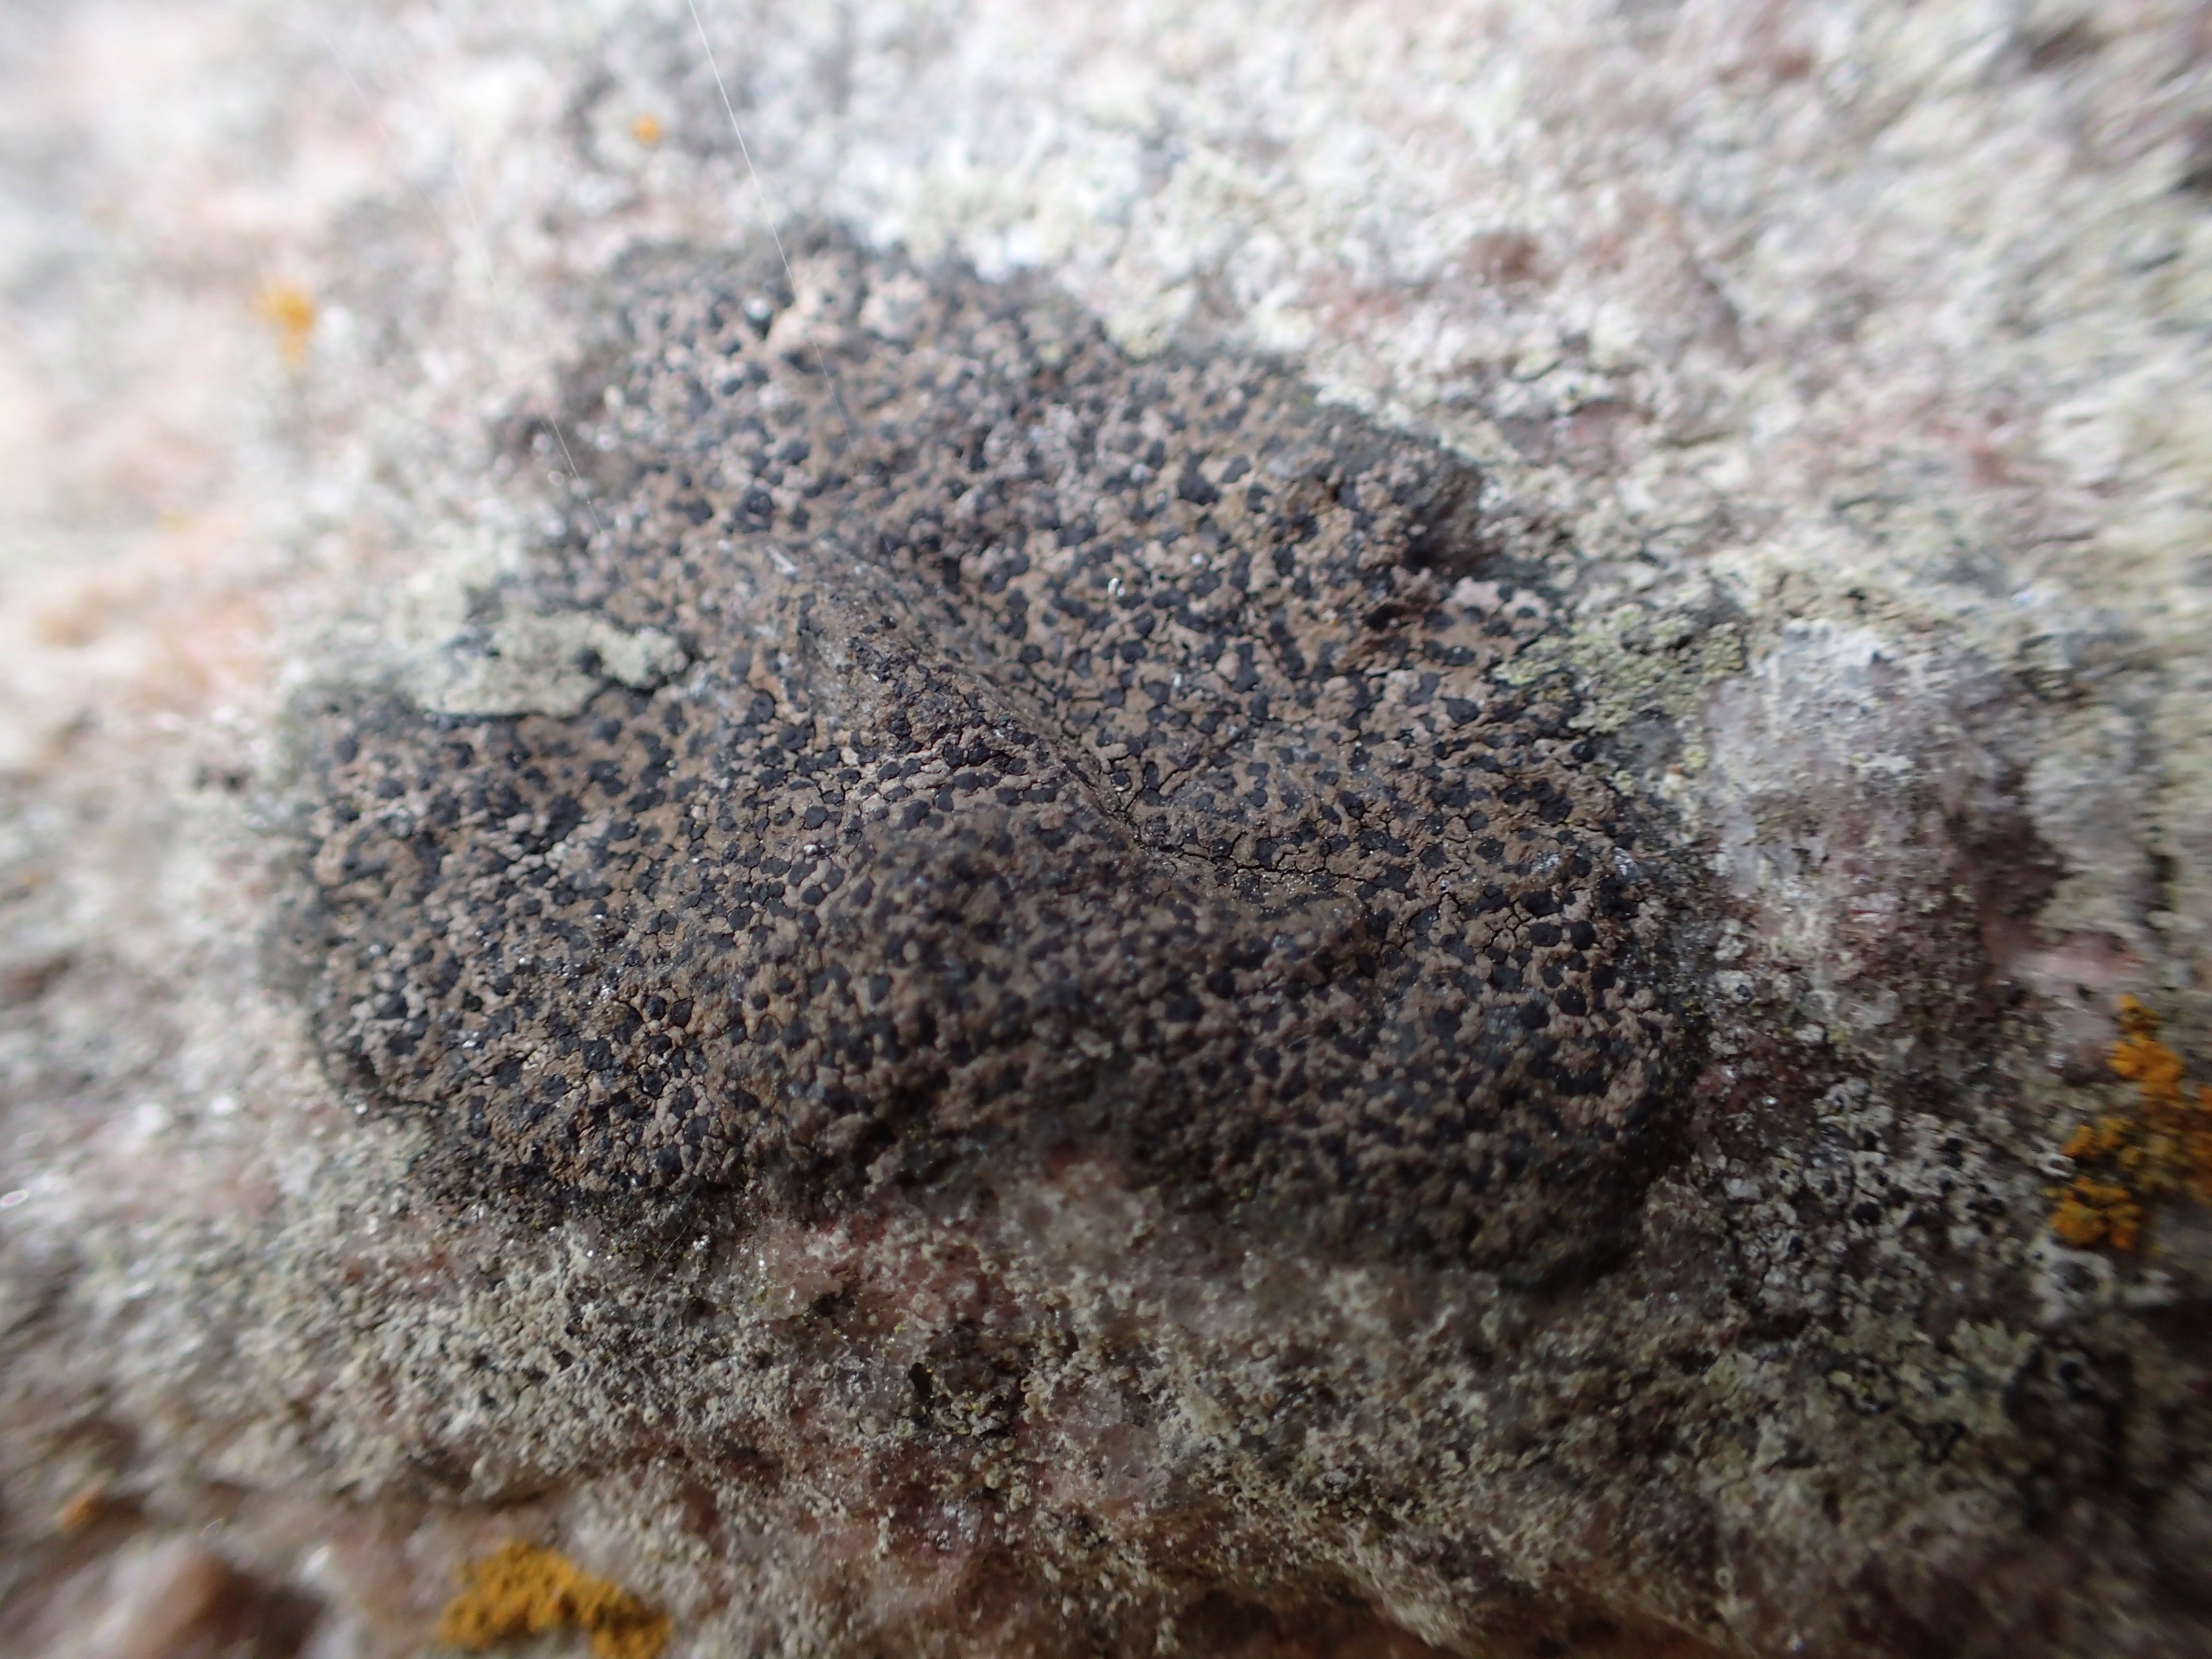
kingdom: Fungi
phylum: Ascomycota
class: Lecanoromycetes
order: Rhizocarpales
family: Rhizocarpaceae
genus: Rhizocarpon
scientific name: Rhizocarpon reductum
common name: Mørk landkortlav
